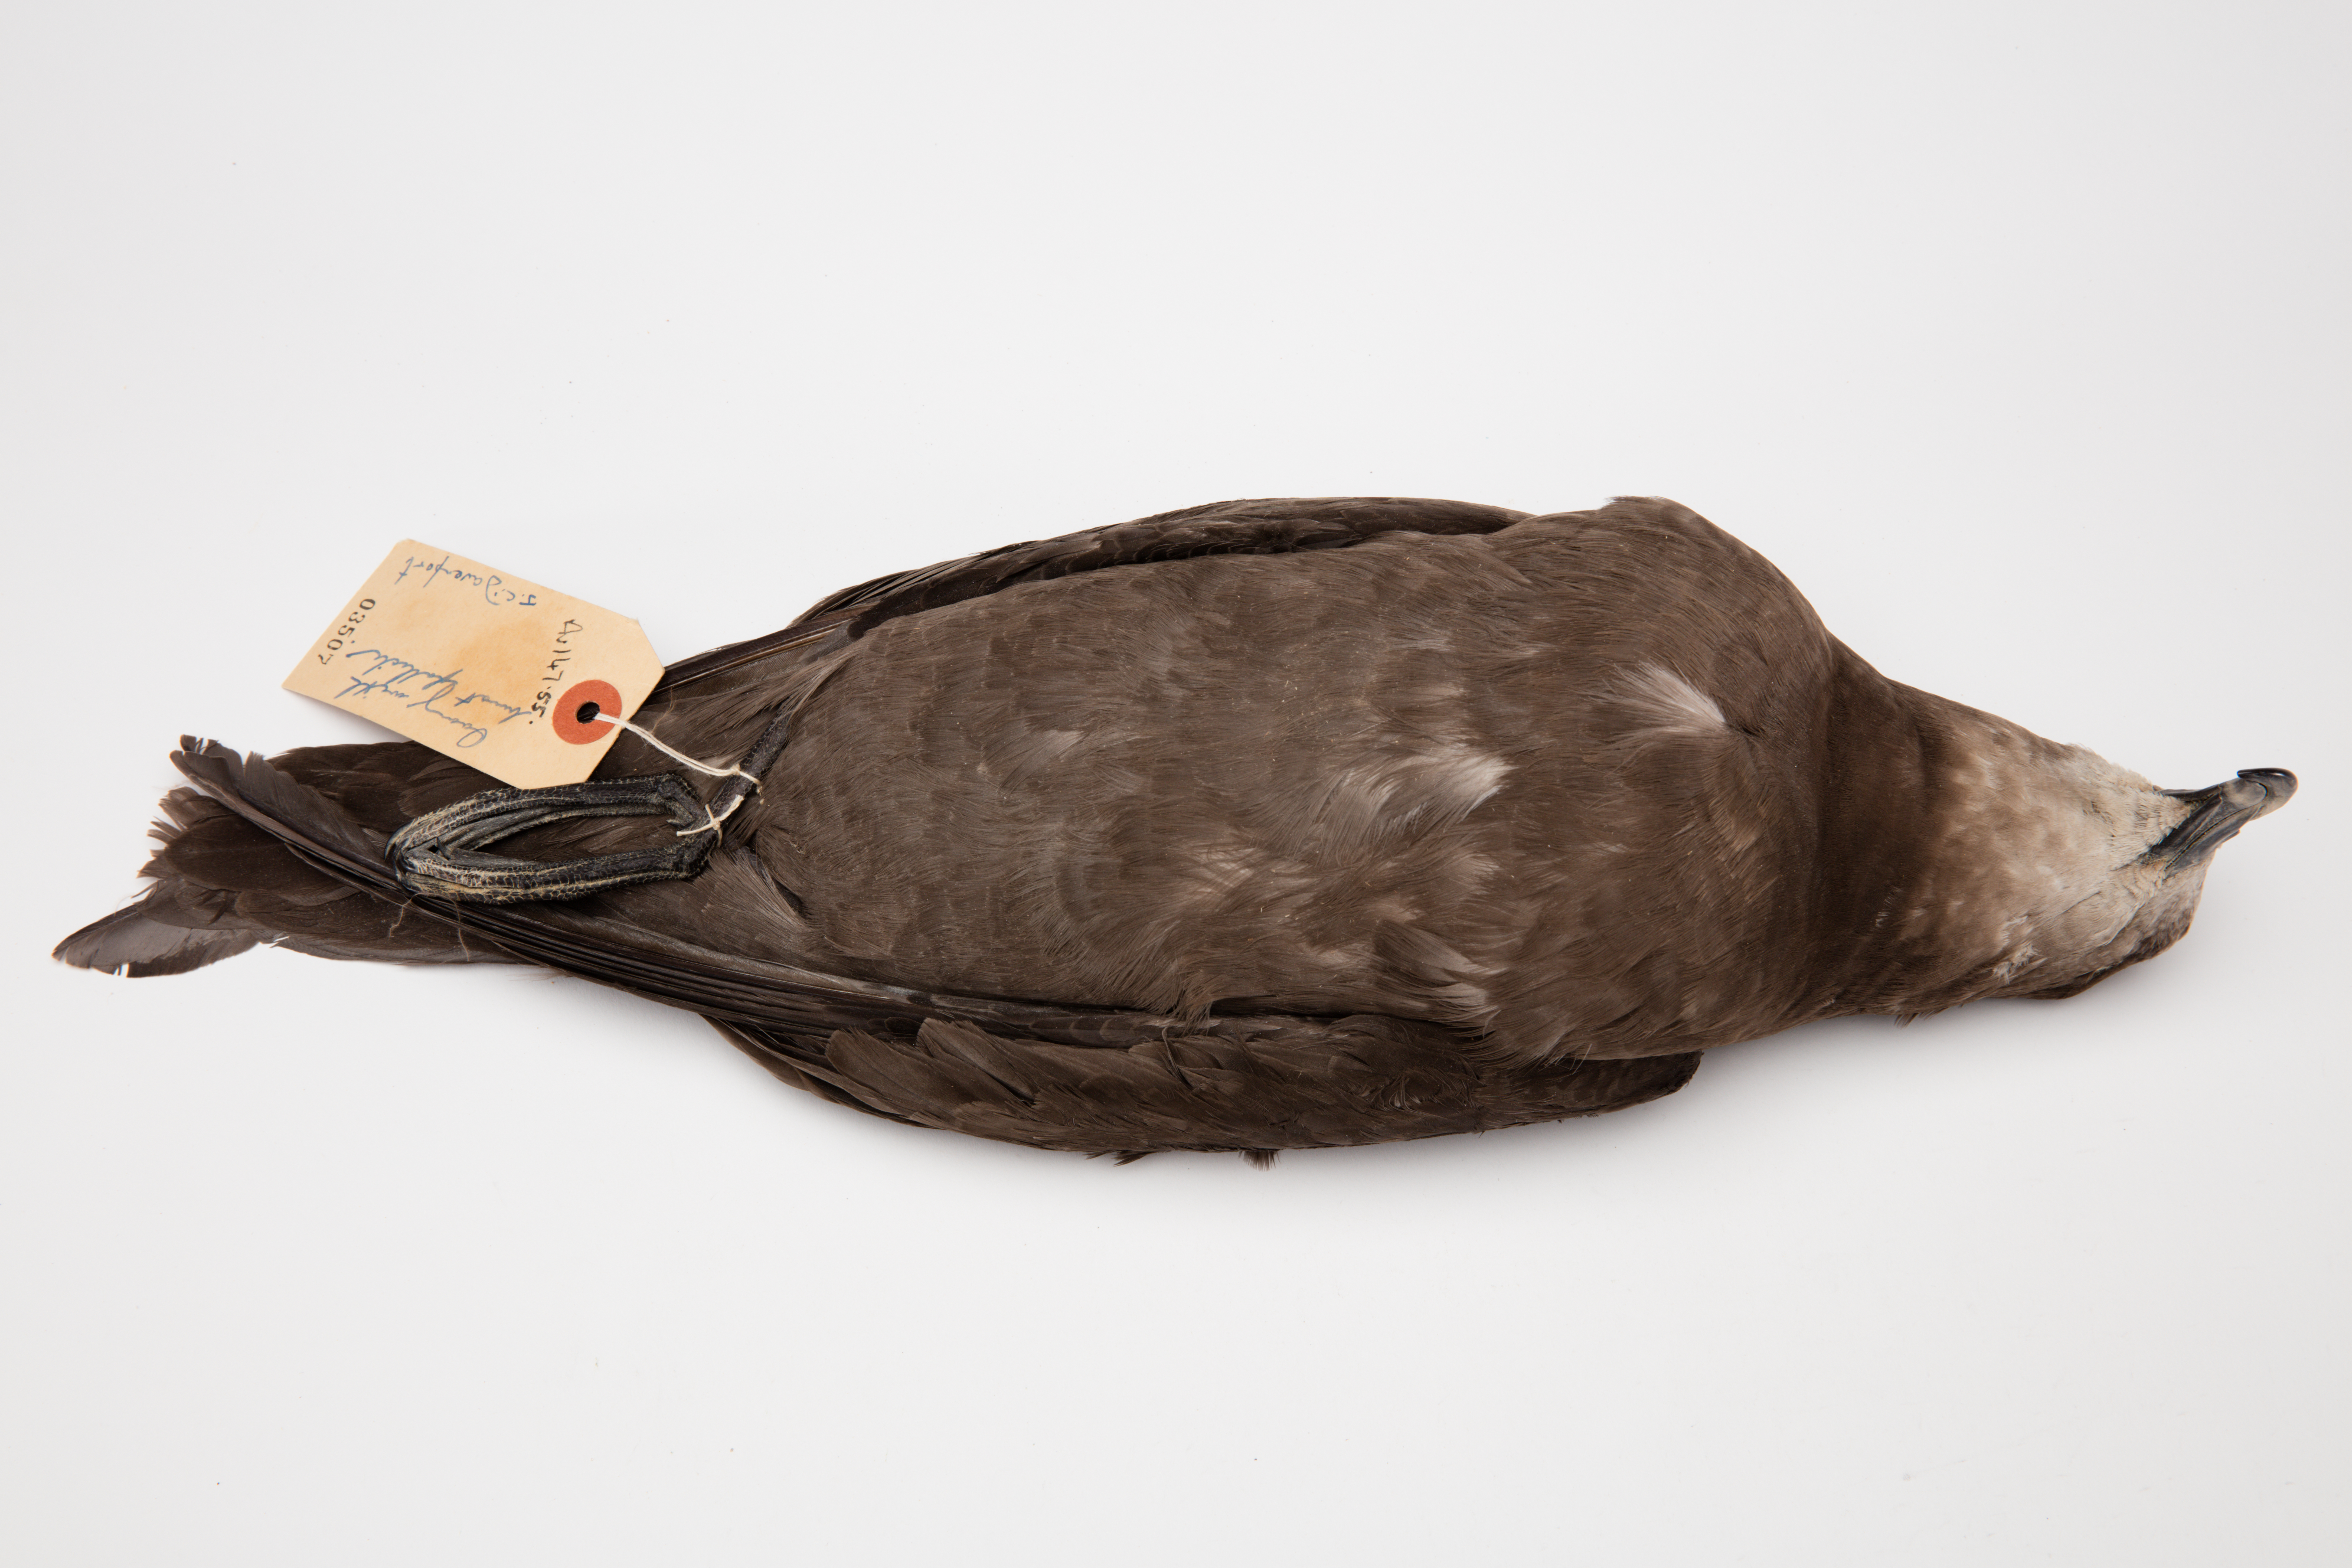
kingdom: Animalia
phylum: Chordata
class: Aves
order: Procellariiformes
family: Procellariidae
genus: Pterodroma
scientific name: Pterodroma macroptera
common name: Great-winged petrel
